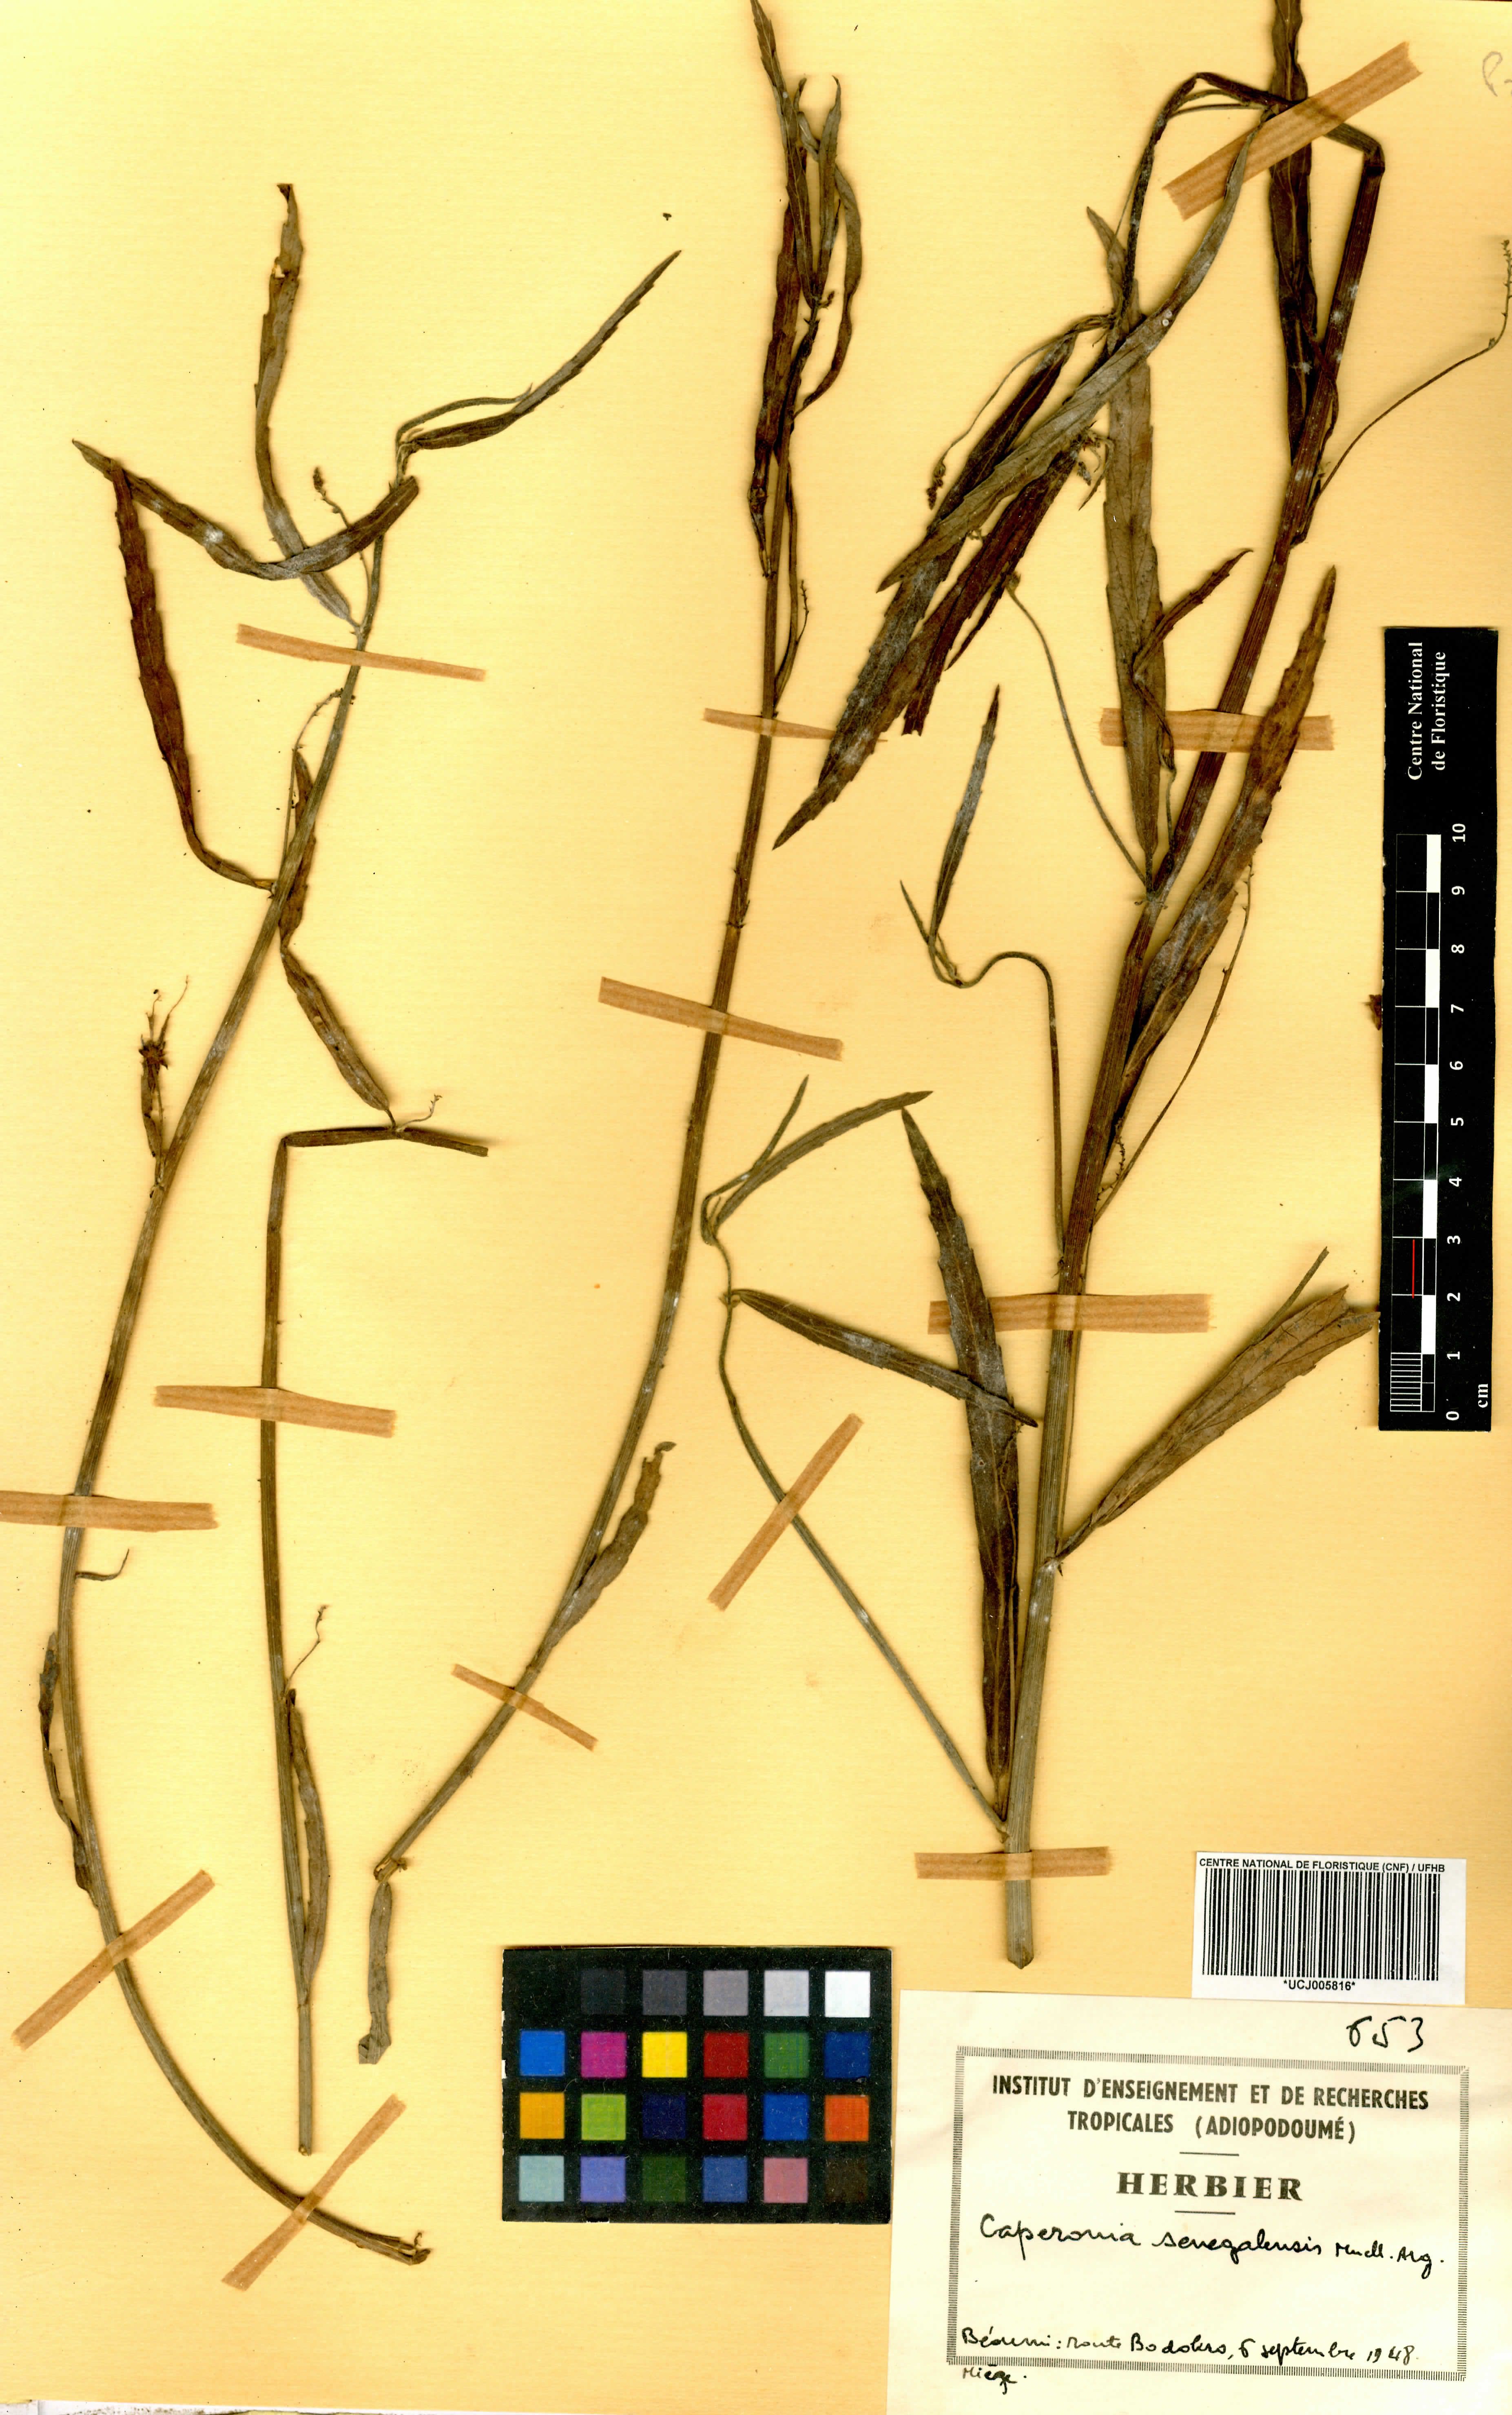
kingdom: Plantae
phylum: Tracheophyta
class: Magnoliopsida
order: Malpighiales
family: Euphorbiaceae
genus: Caperonia
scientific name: Caperonia serrata
